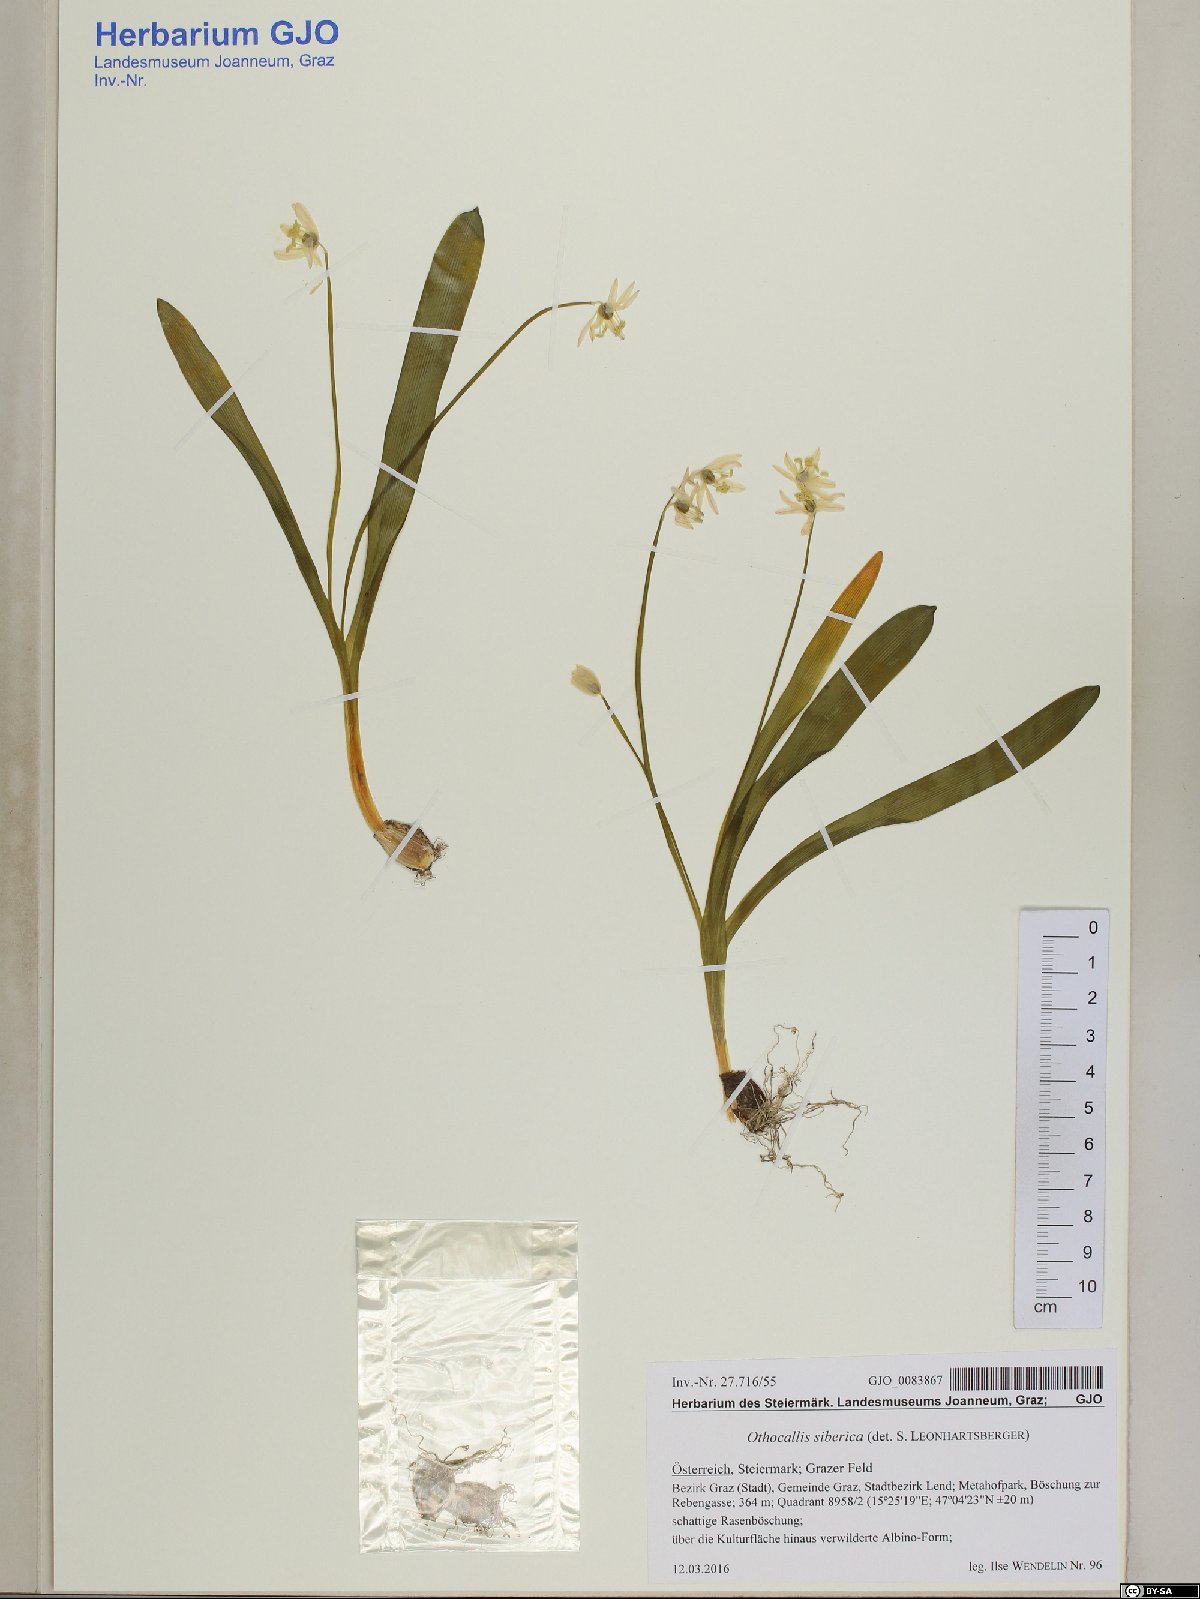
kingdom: Plantae
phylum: Tracheophyta
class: Liliopsida
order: Asparagales
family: Asparagaceae
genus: Scilla
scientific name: Scilla siberica
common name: Siberian squill
